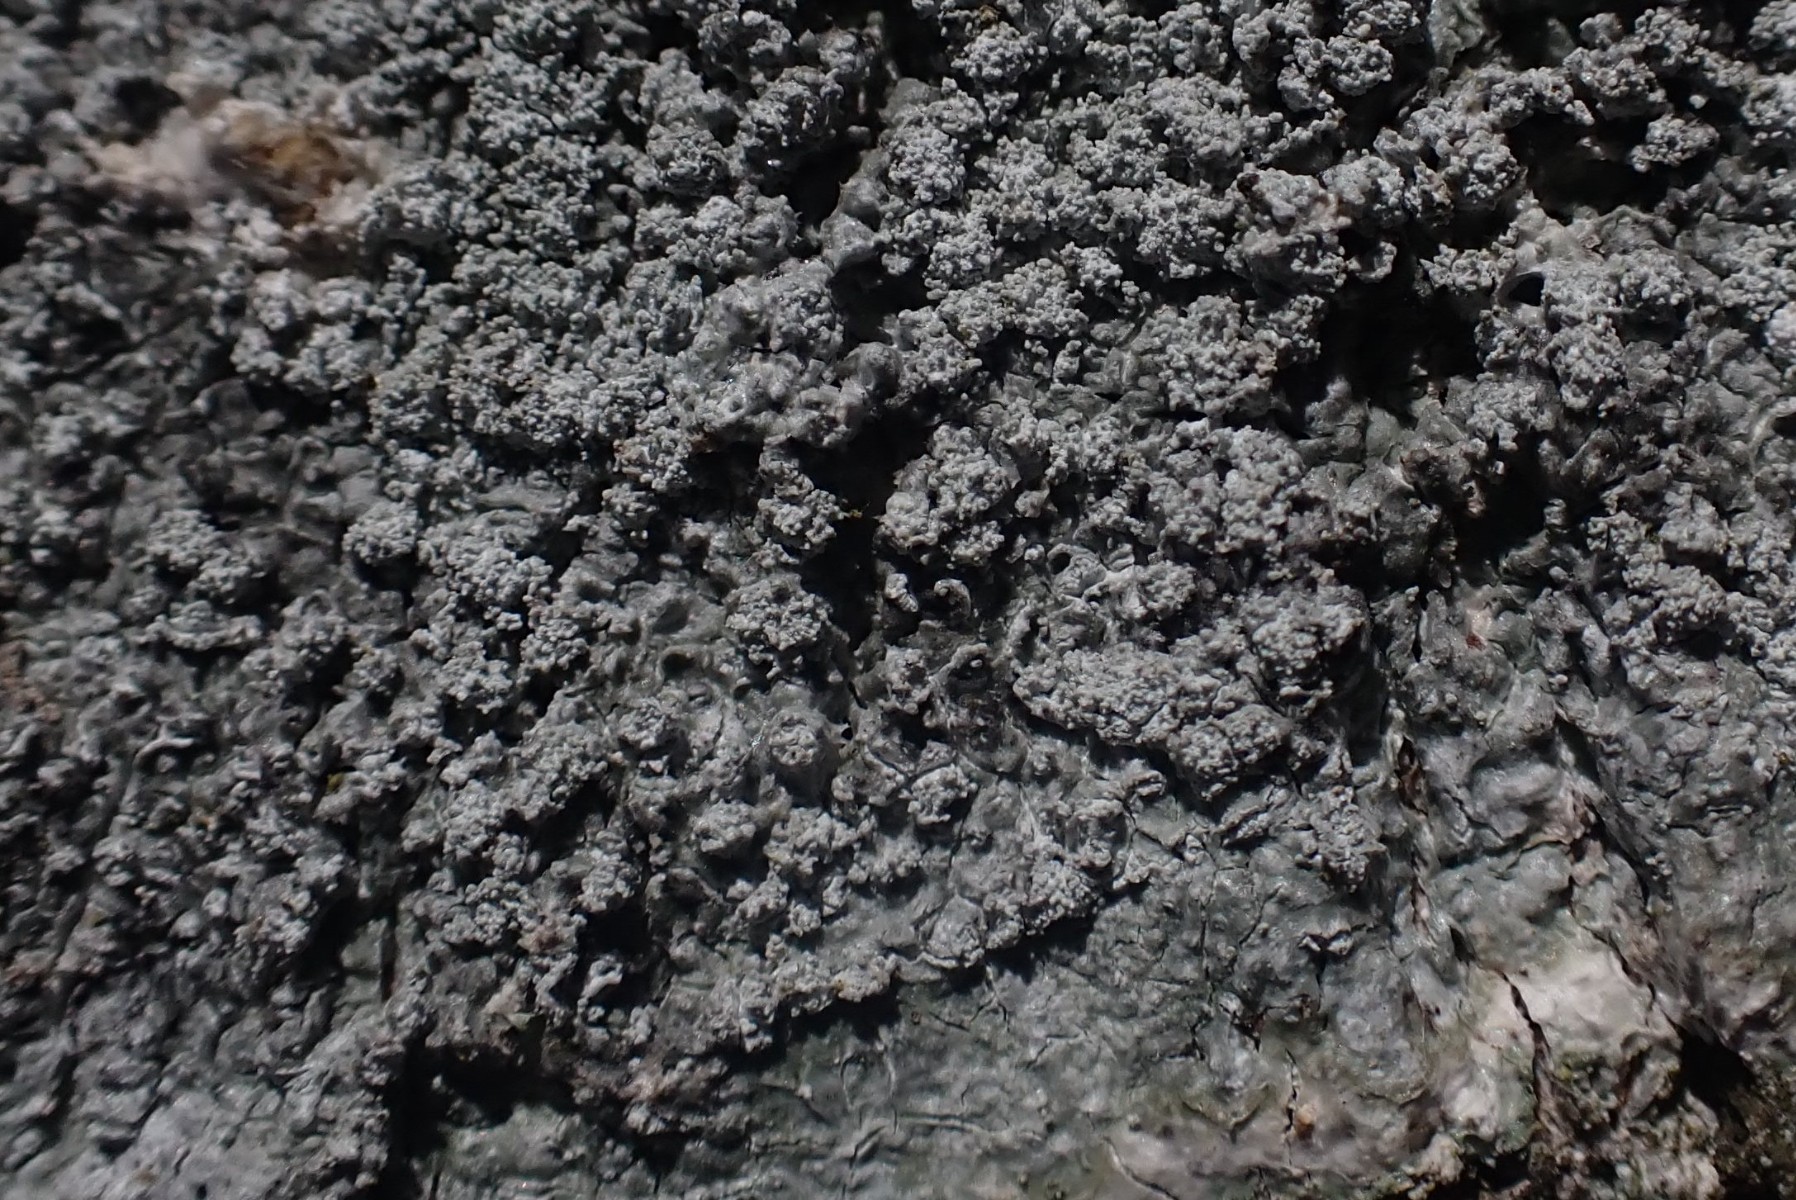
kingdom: Fungi
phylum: Ascomycota
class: Lecanoromycetes
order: Pertusariales
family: Pertusariaceae
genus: Lepra
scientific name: Lepra amara
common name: bitter prikvortelav
